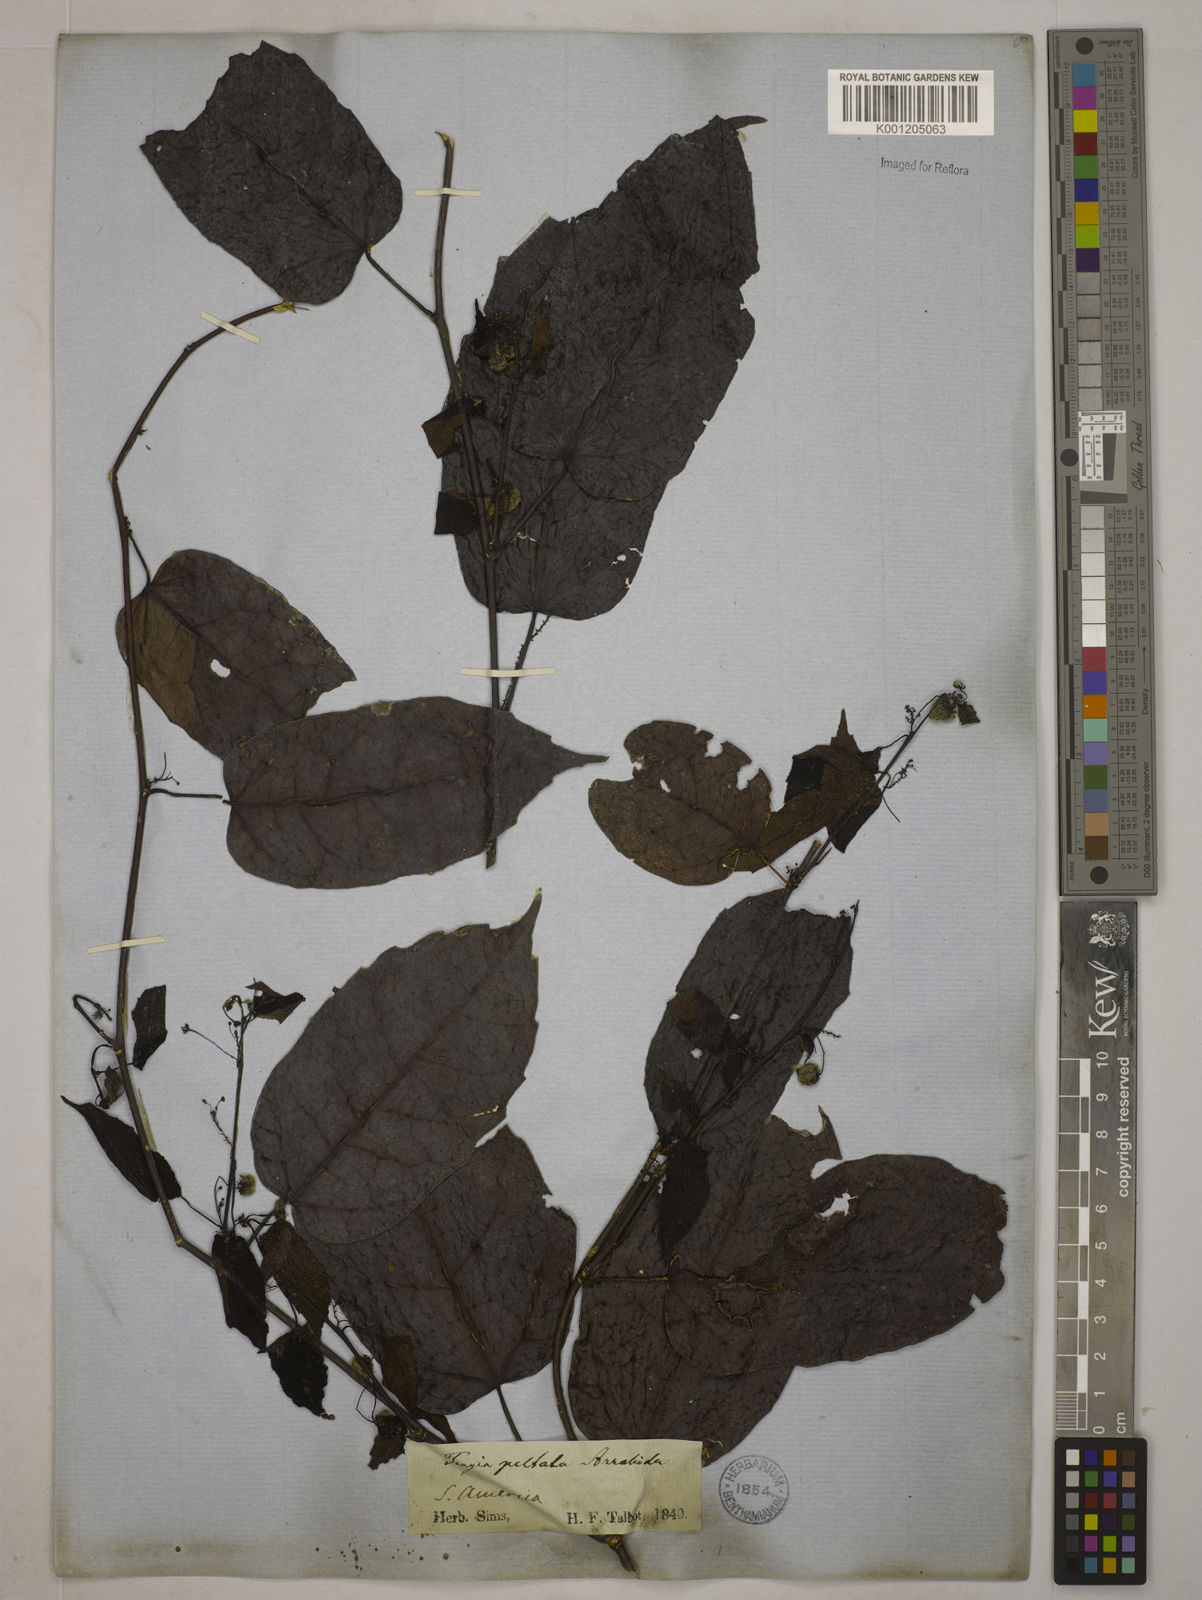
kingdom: Plantae
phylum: Tracheophyta
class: Magnoliopsida
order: Malpighiales
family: Euphorbiaceae
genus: Tragia
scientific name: Tragia peltata
